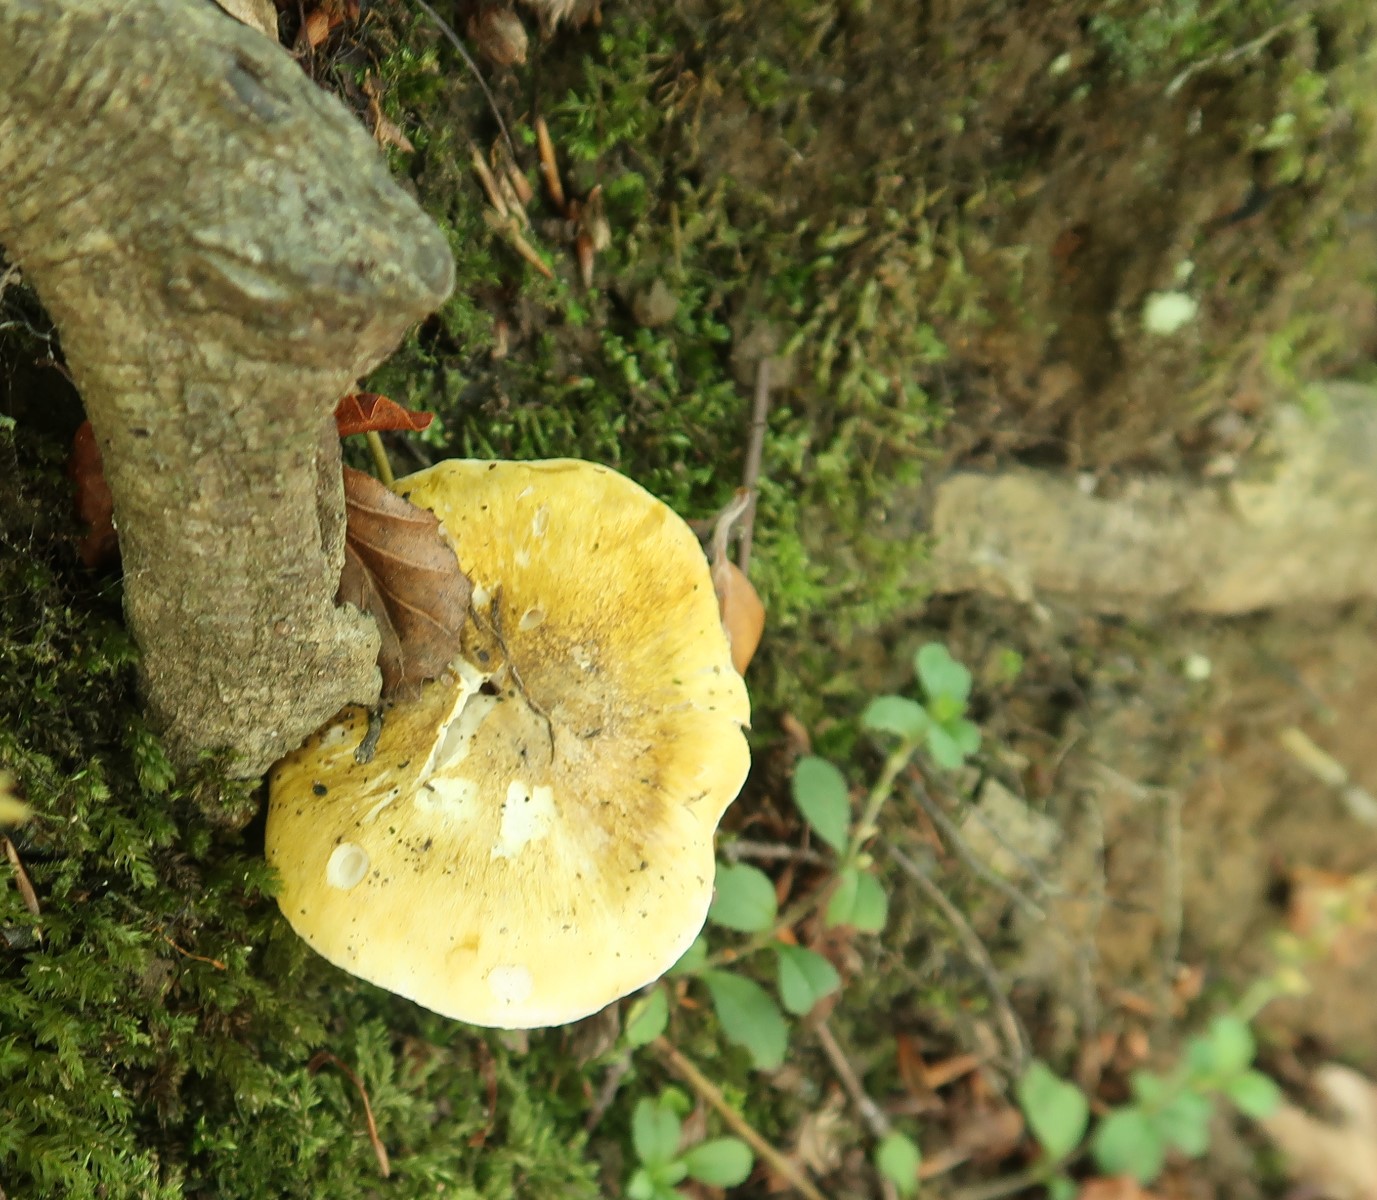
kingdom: Fungi
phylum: Basidiomycota
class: Agaricomycetes
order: Agaricales
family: Tricholomataceae
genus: Tricholoma
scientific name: Tricholoma sejunctum
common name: grøngul ridderhat
